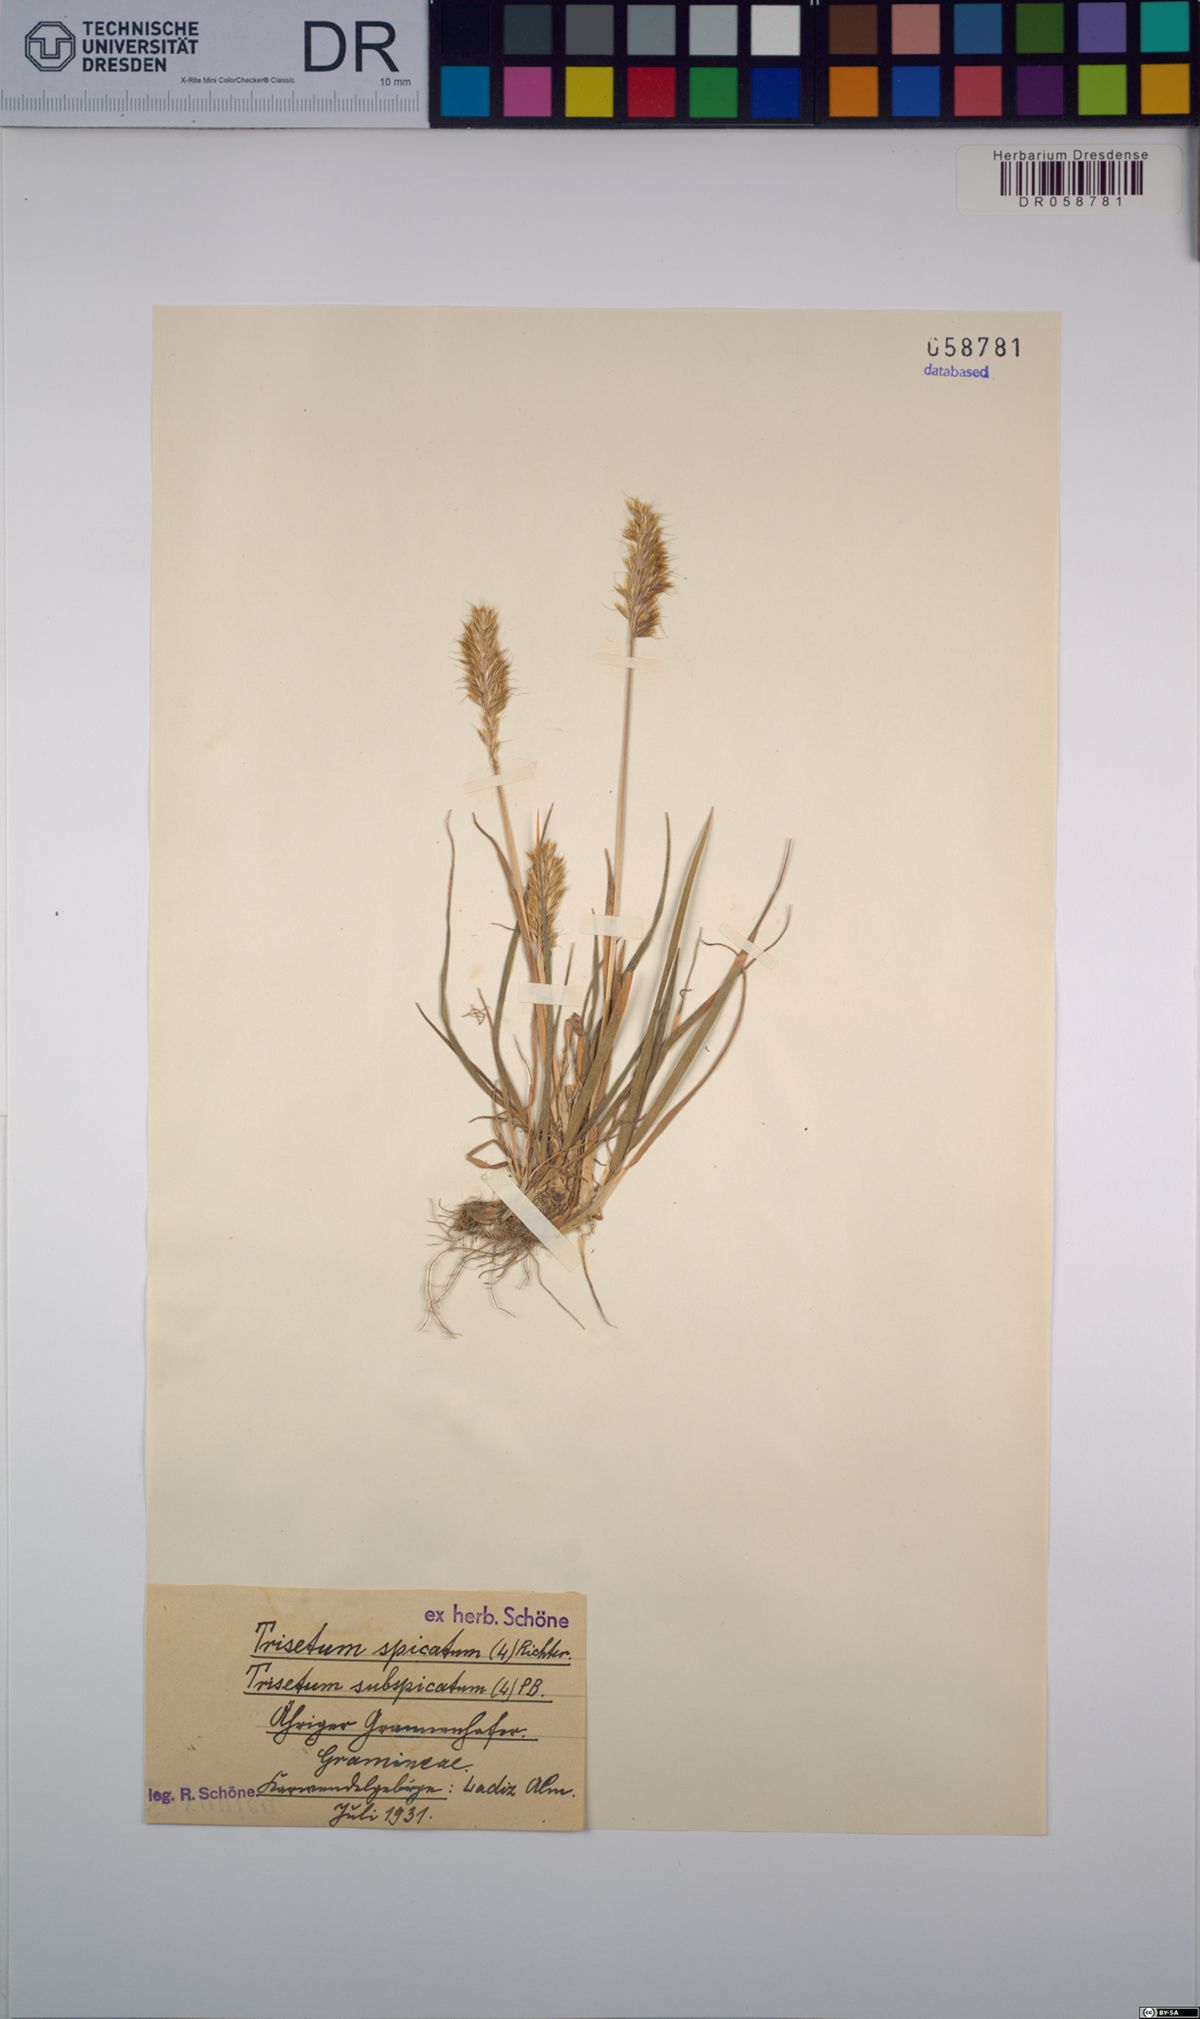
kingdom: Plantae
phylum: Tracheophyta
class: Liliopsida
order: Poales
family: Poaceae
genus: Koeleria
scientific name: Koeleria spicata
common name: Mountain trisetum
